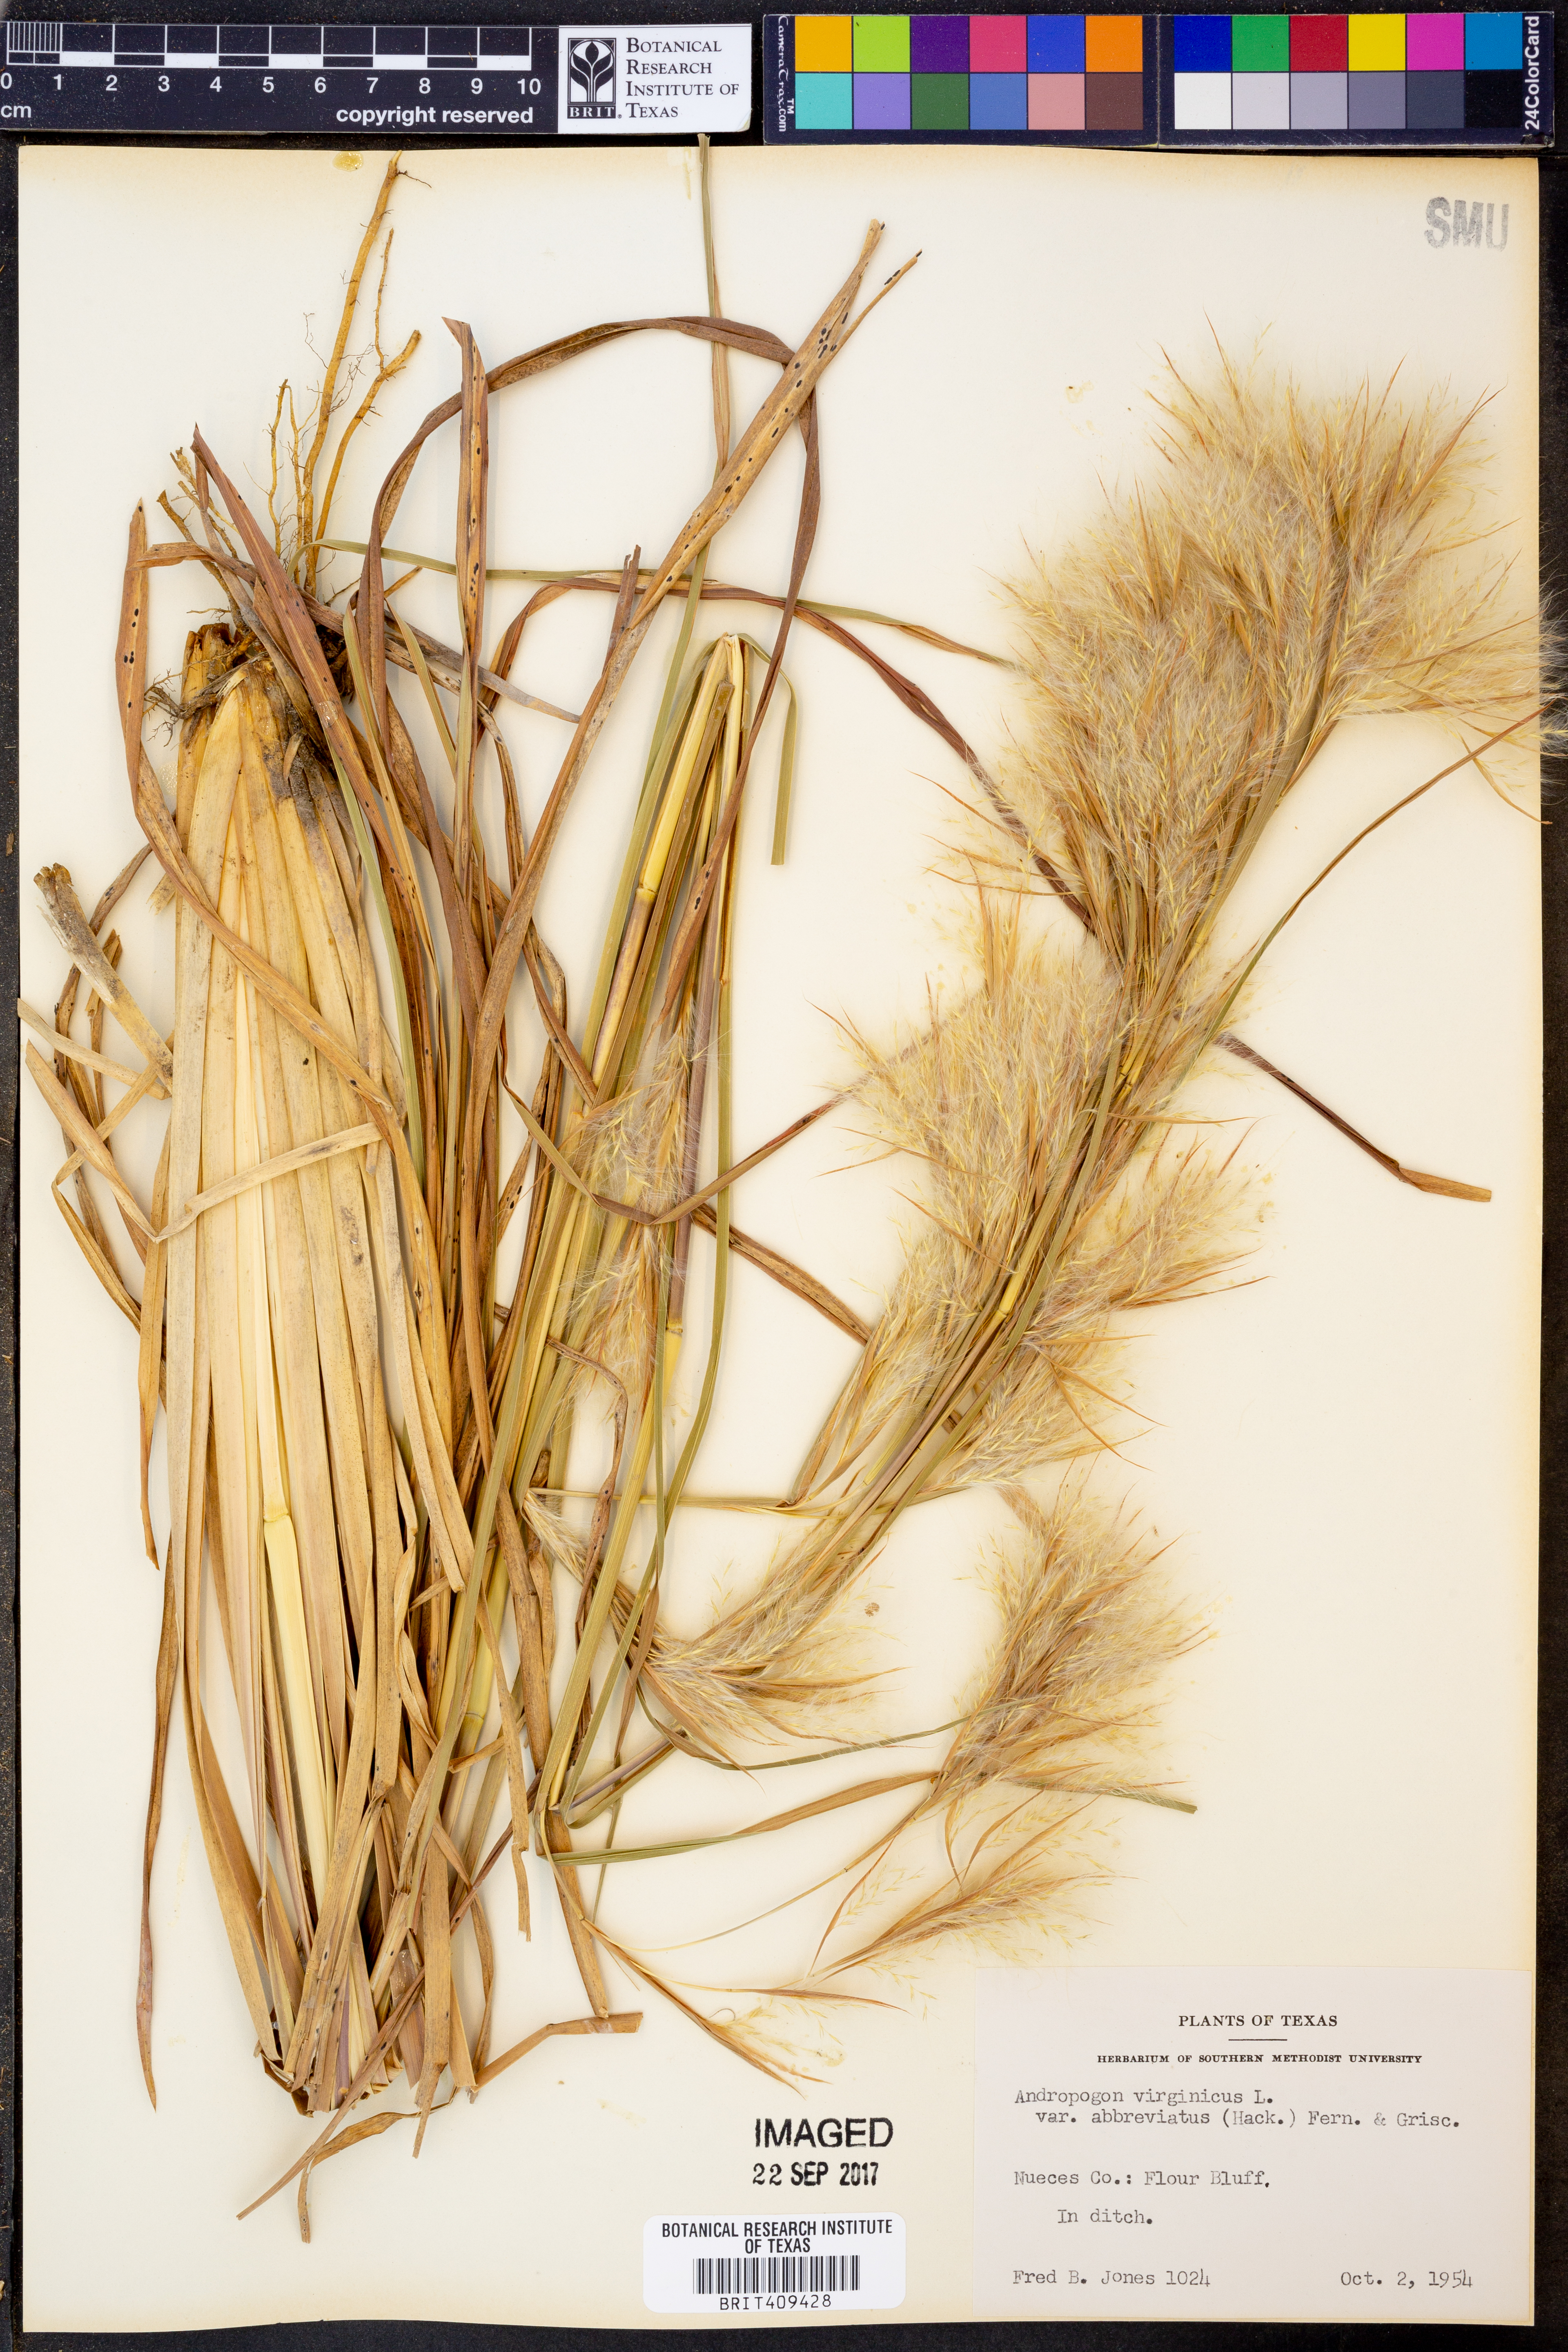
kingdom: Plantae
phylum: Tracheophyta
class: Liliopsida
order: Poales
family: Poaceae
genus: Andropogon
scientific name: Andropogon virginicus
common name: Broomsedge bluestem
